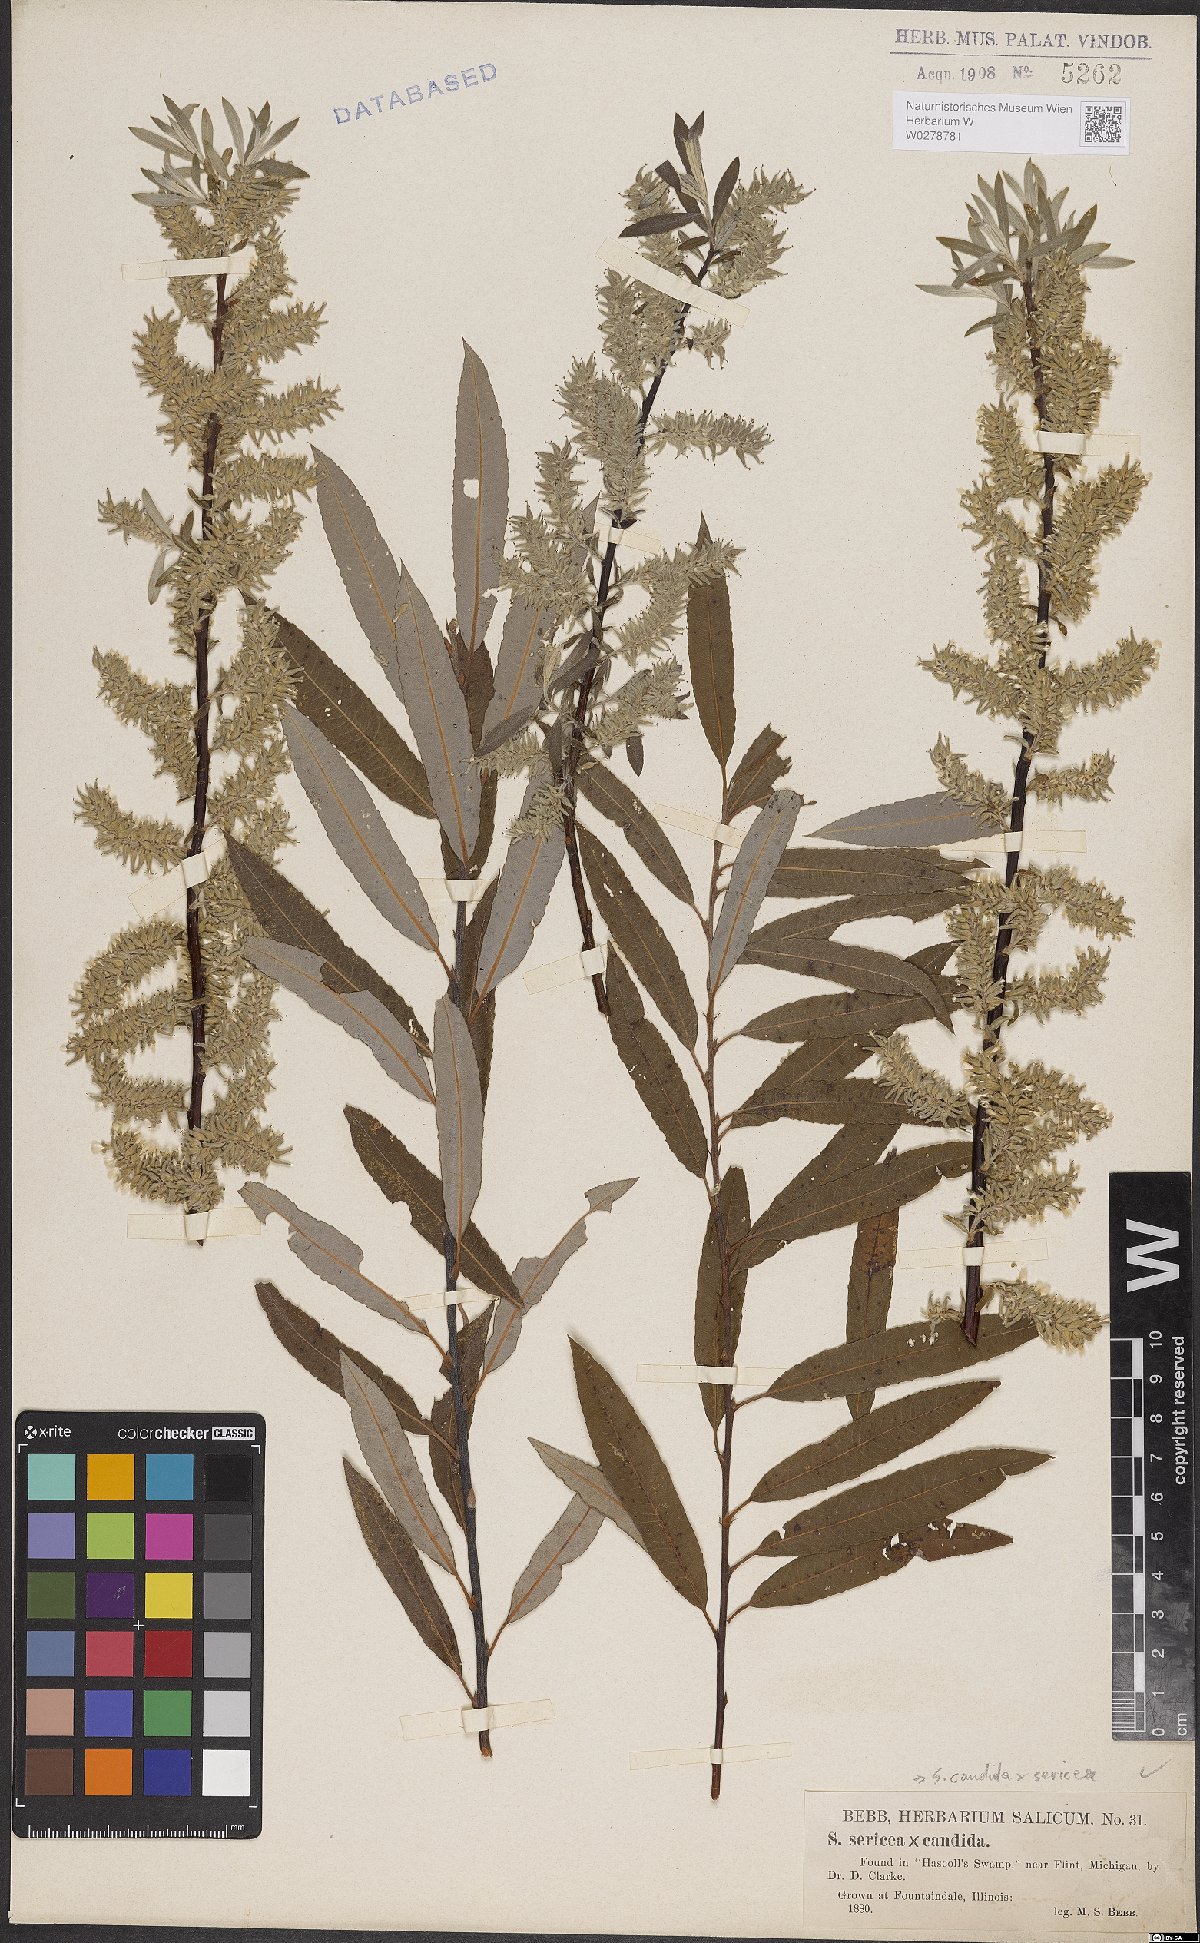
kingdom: Plantae
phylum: Tracheophyta
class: Magnoliopsida
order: Malpighiales
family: Salicaceae
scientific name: Salicaceae
